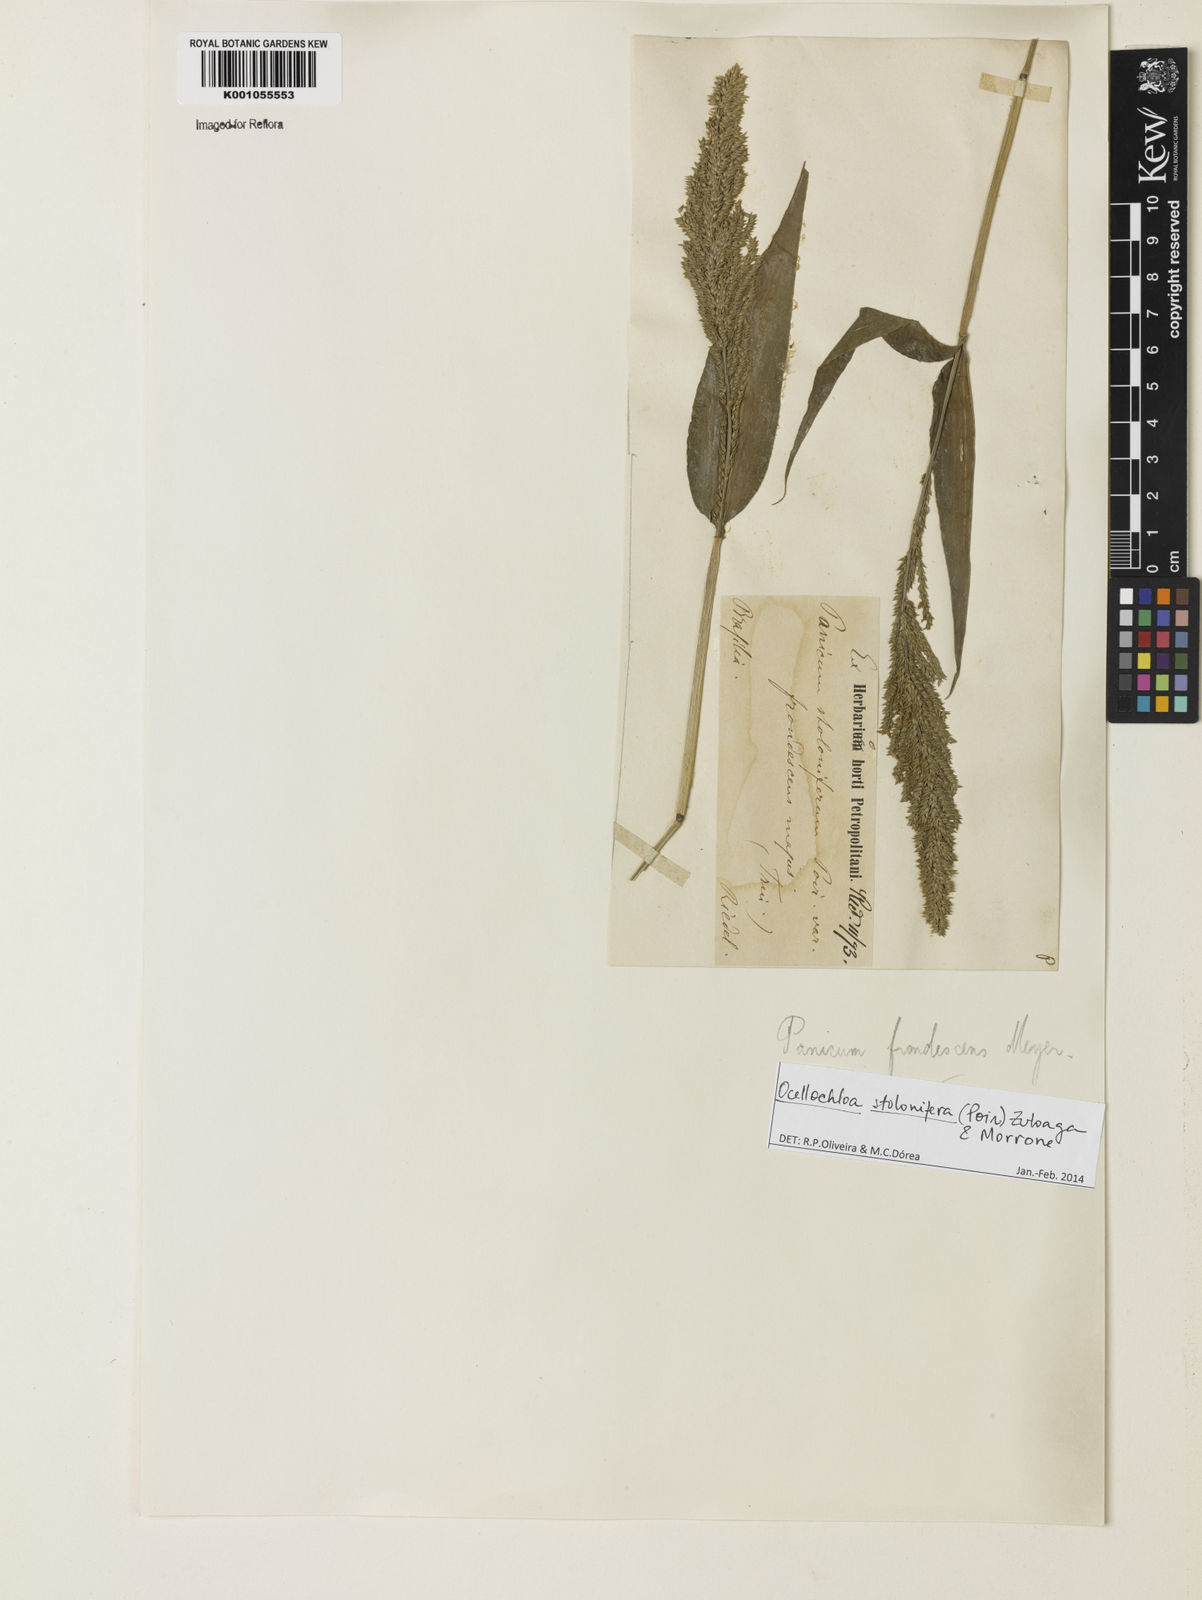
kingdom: Plantae
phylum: Tracheophyta
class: Liliopsida
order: Poales
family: Poaceae
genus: Ocellochloa
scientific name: Ocellochloa stolonifera
